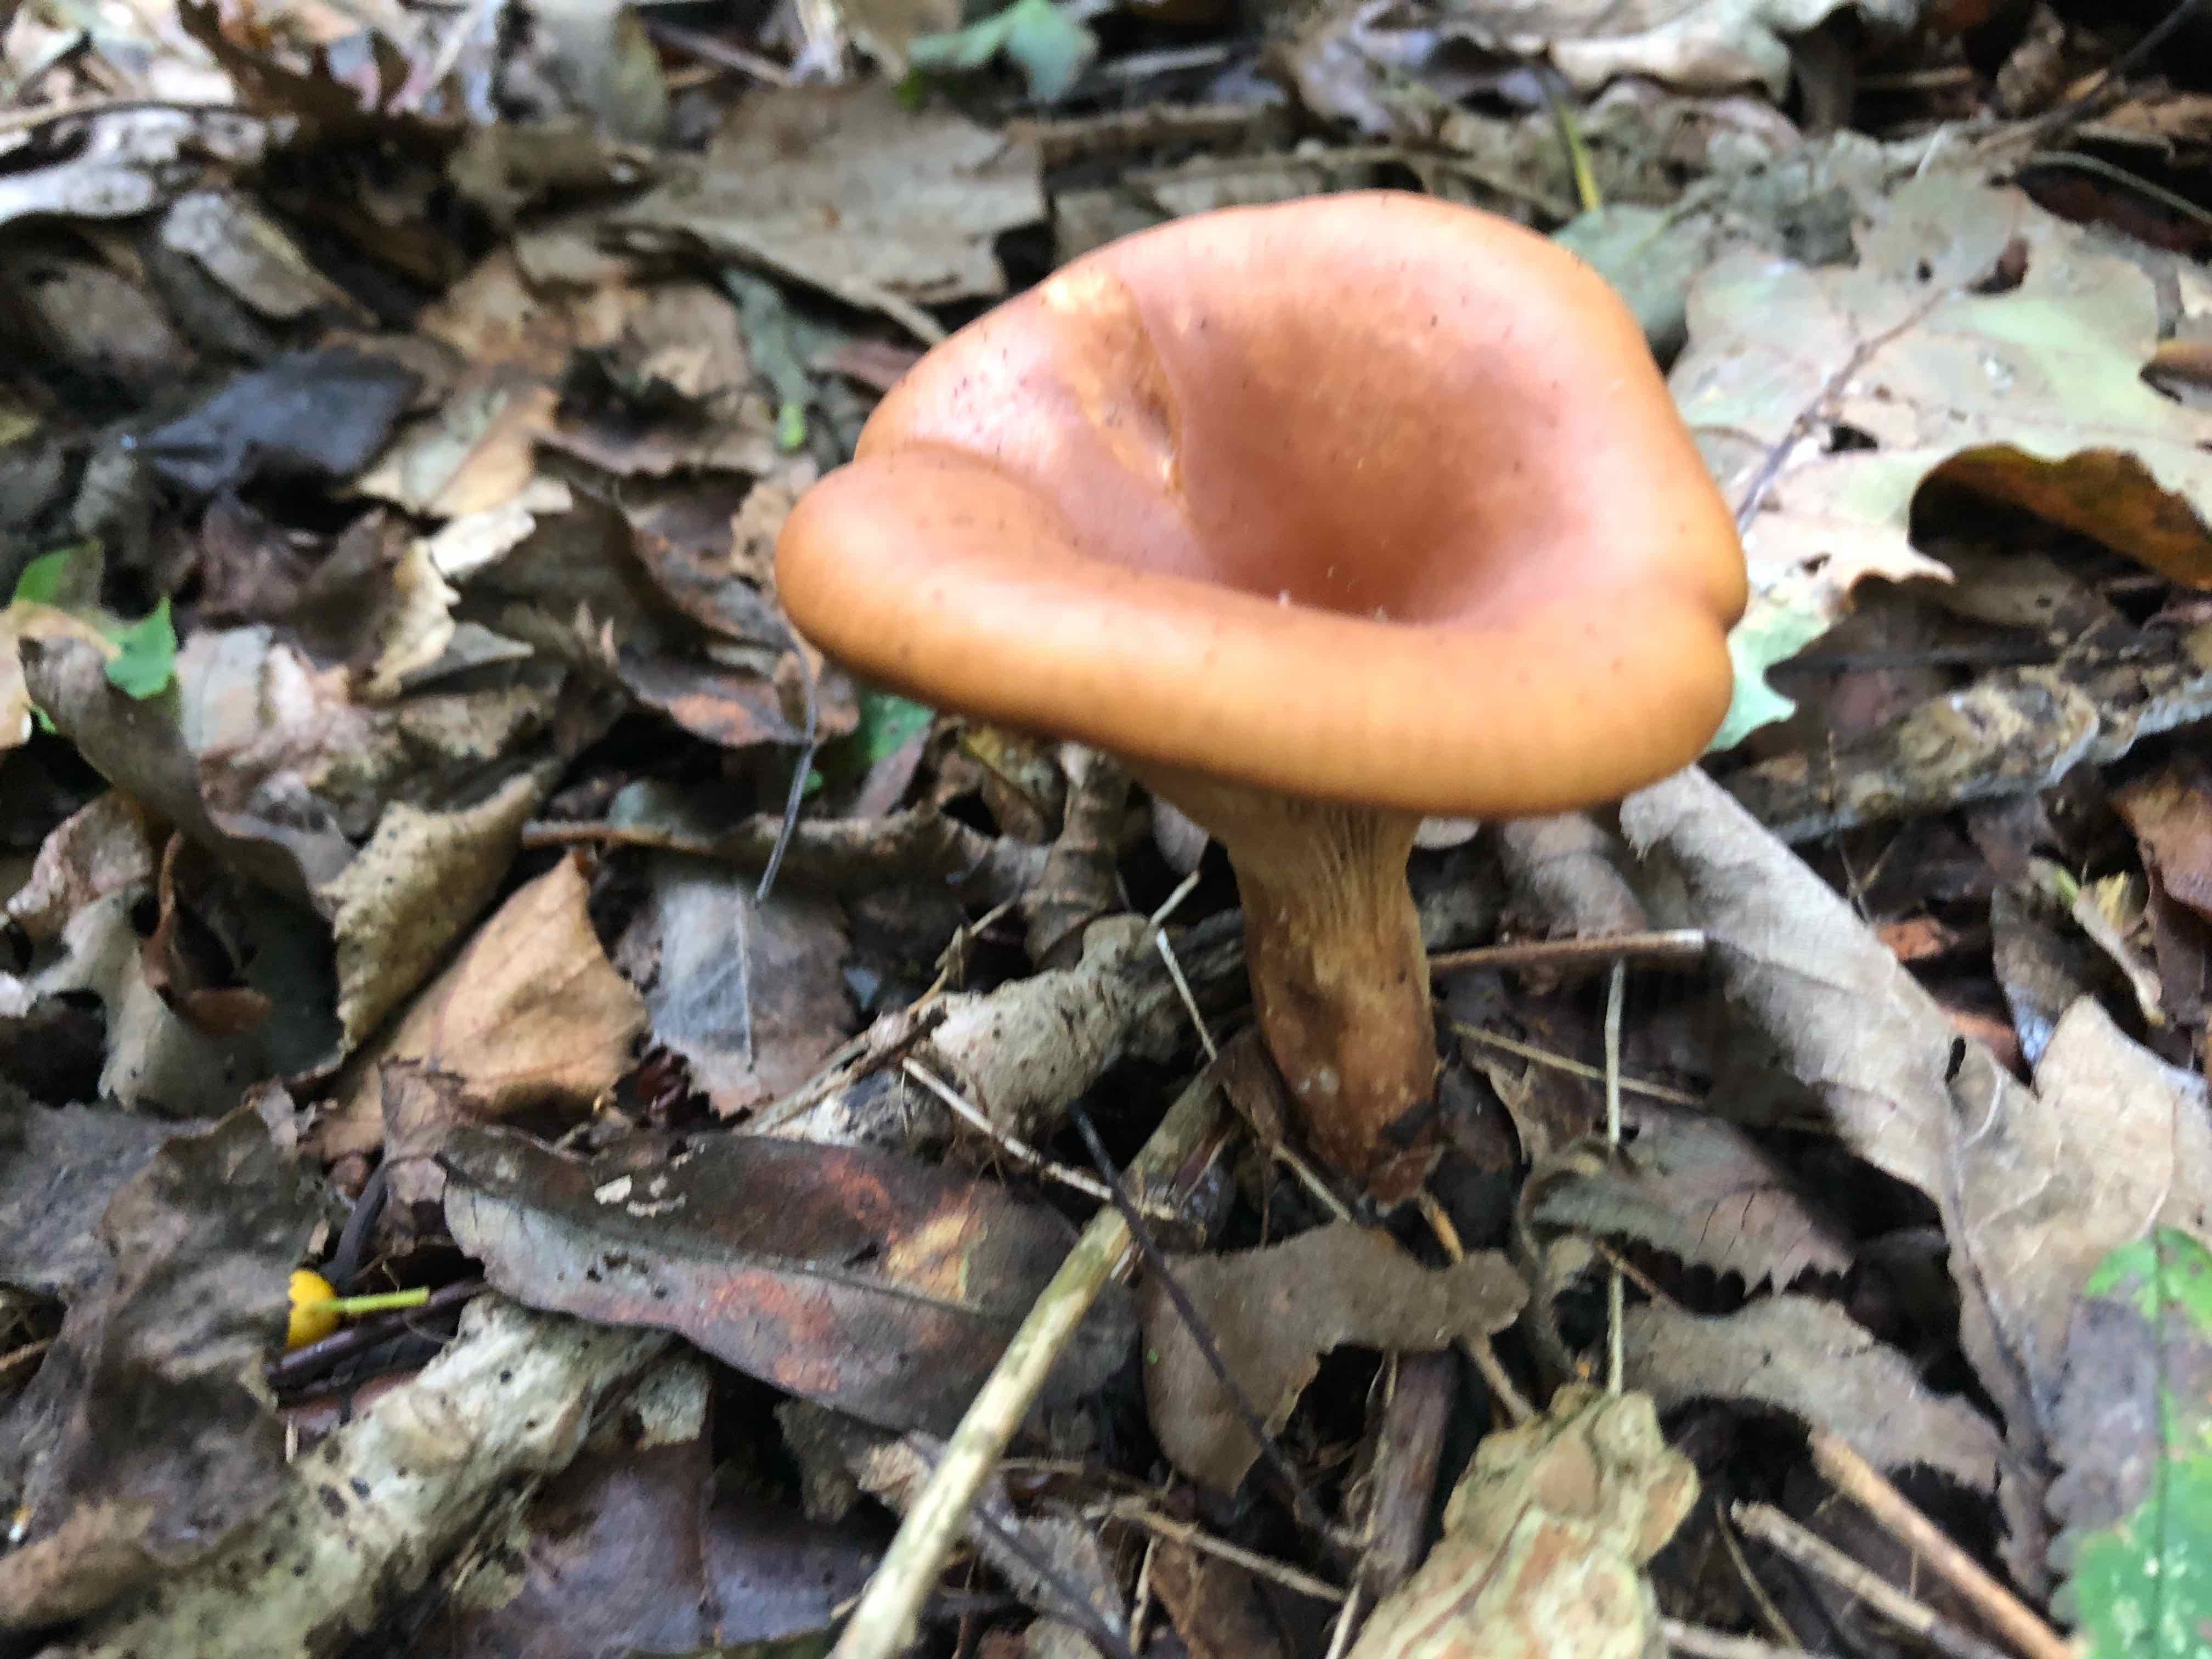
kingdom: Fungi
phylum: Basidiomycota
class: Agaricomycetes
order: Agaricales
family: Tricholomataceae
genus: Paralepista
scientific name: Paralepista flaccida
